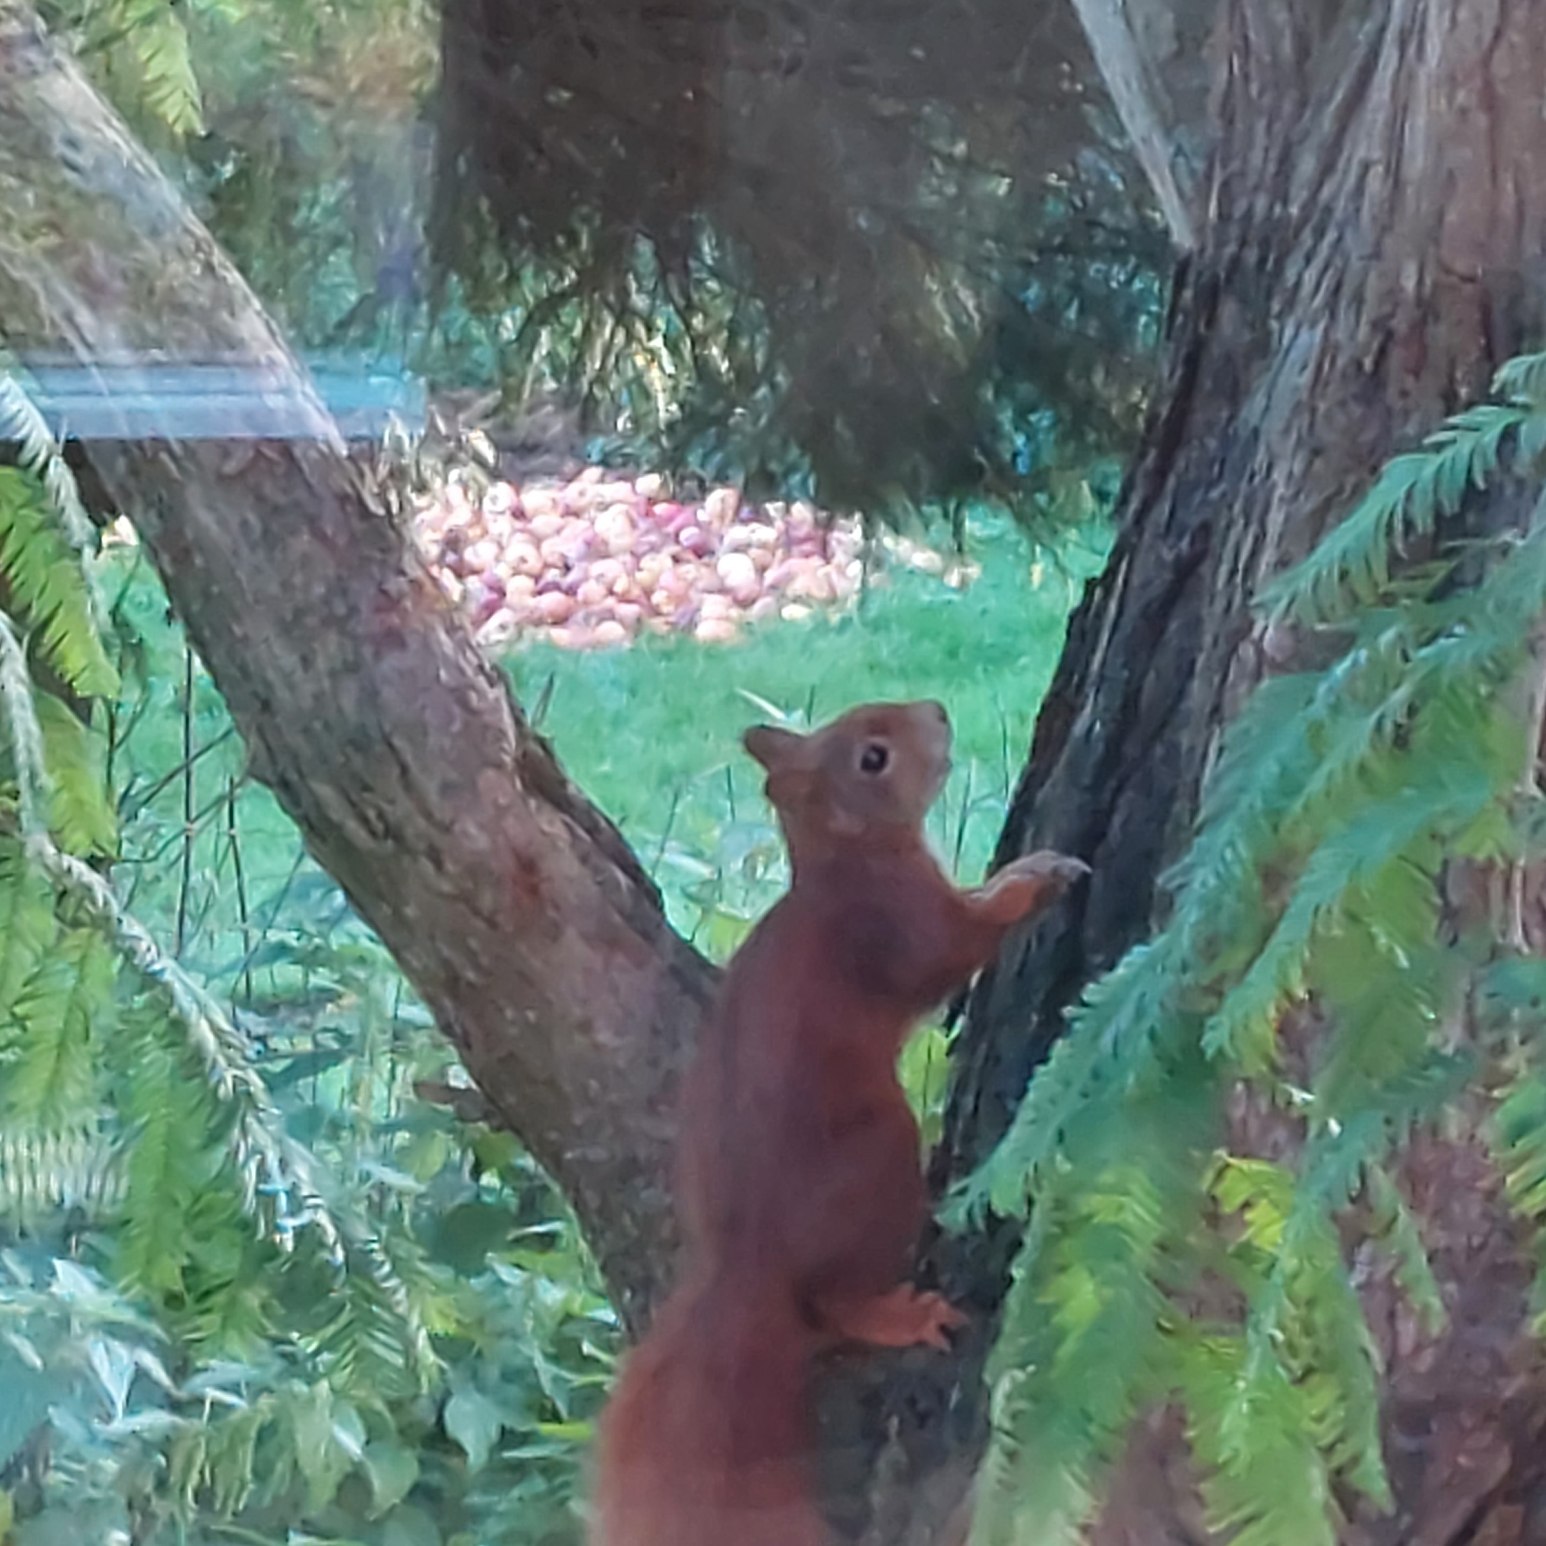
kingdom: Animalia
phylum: Chordata
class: Mammalia
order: Rodentia
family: Sciuridae
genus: Sciurus
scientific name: Sciurus vulgaris
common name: Egern
